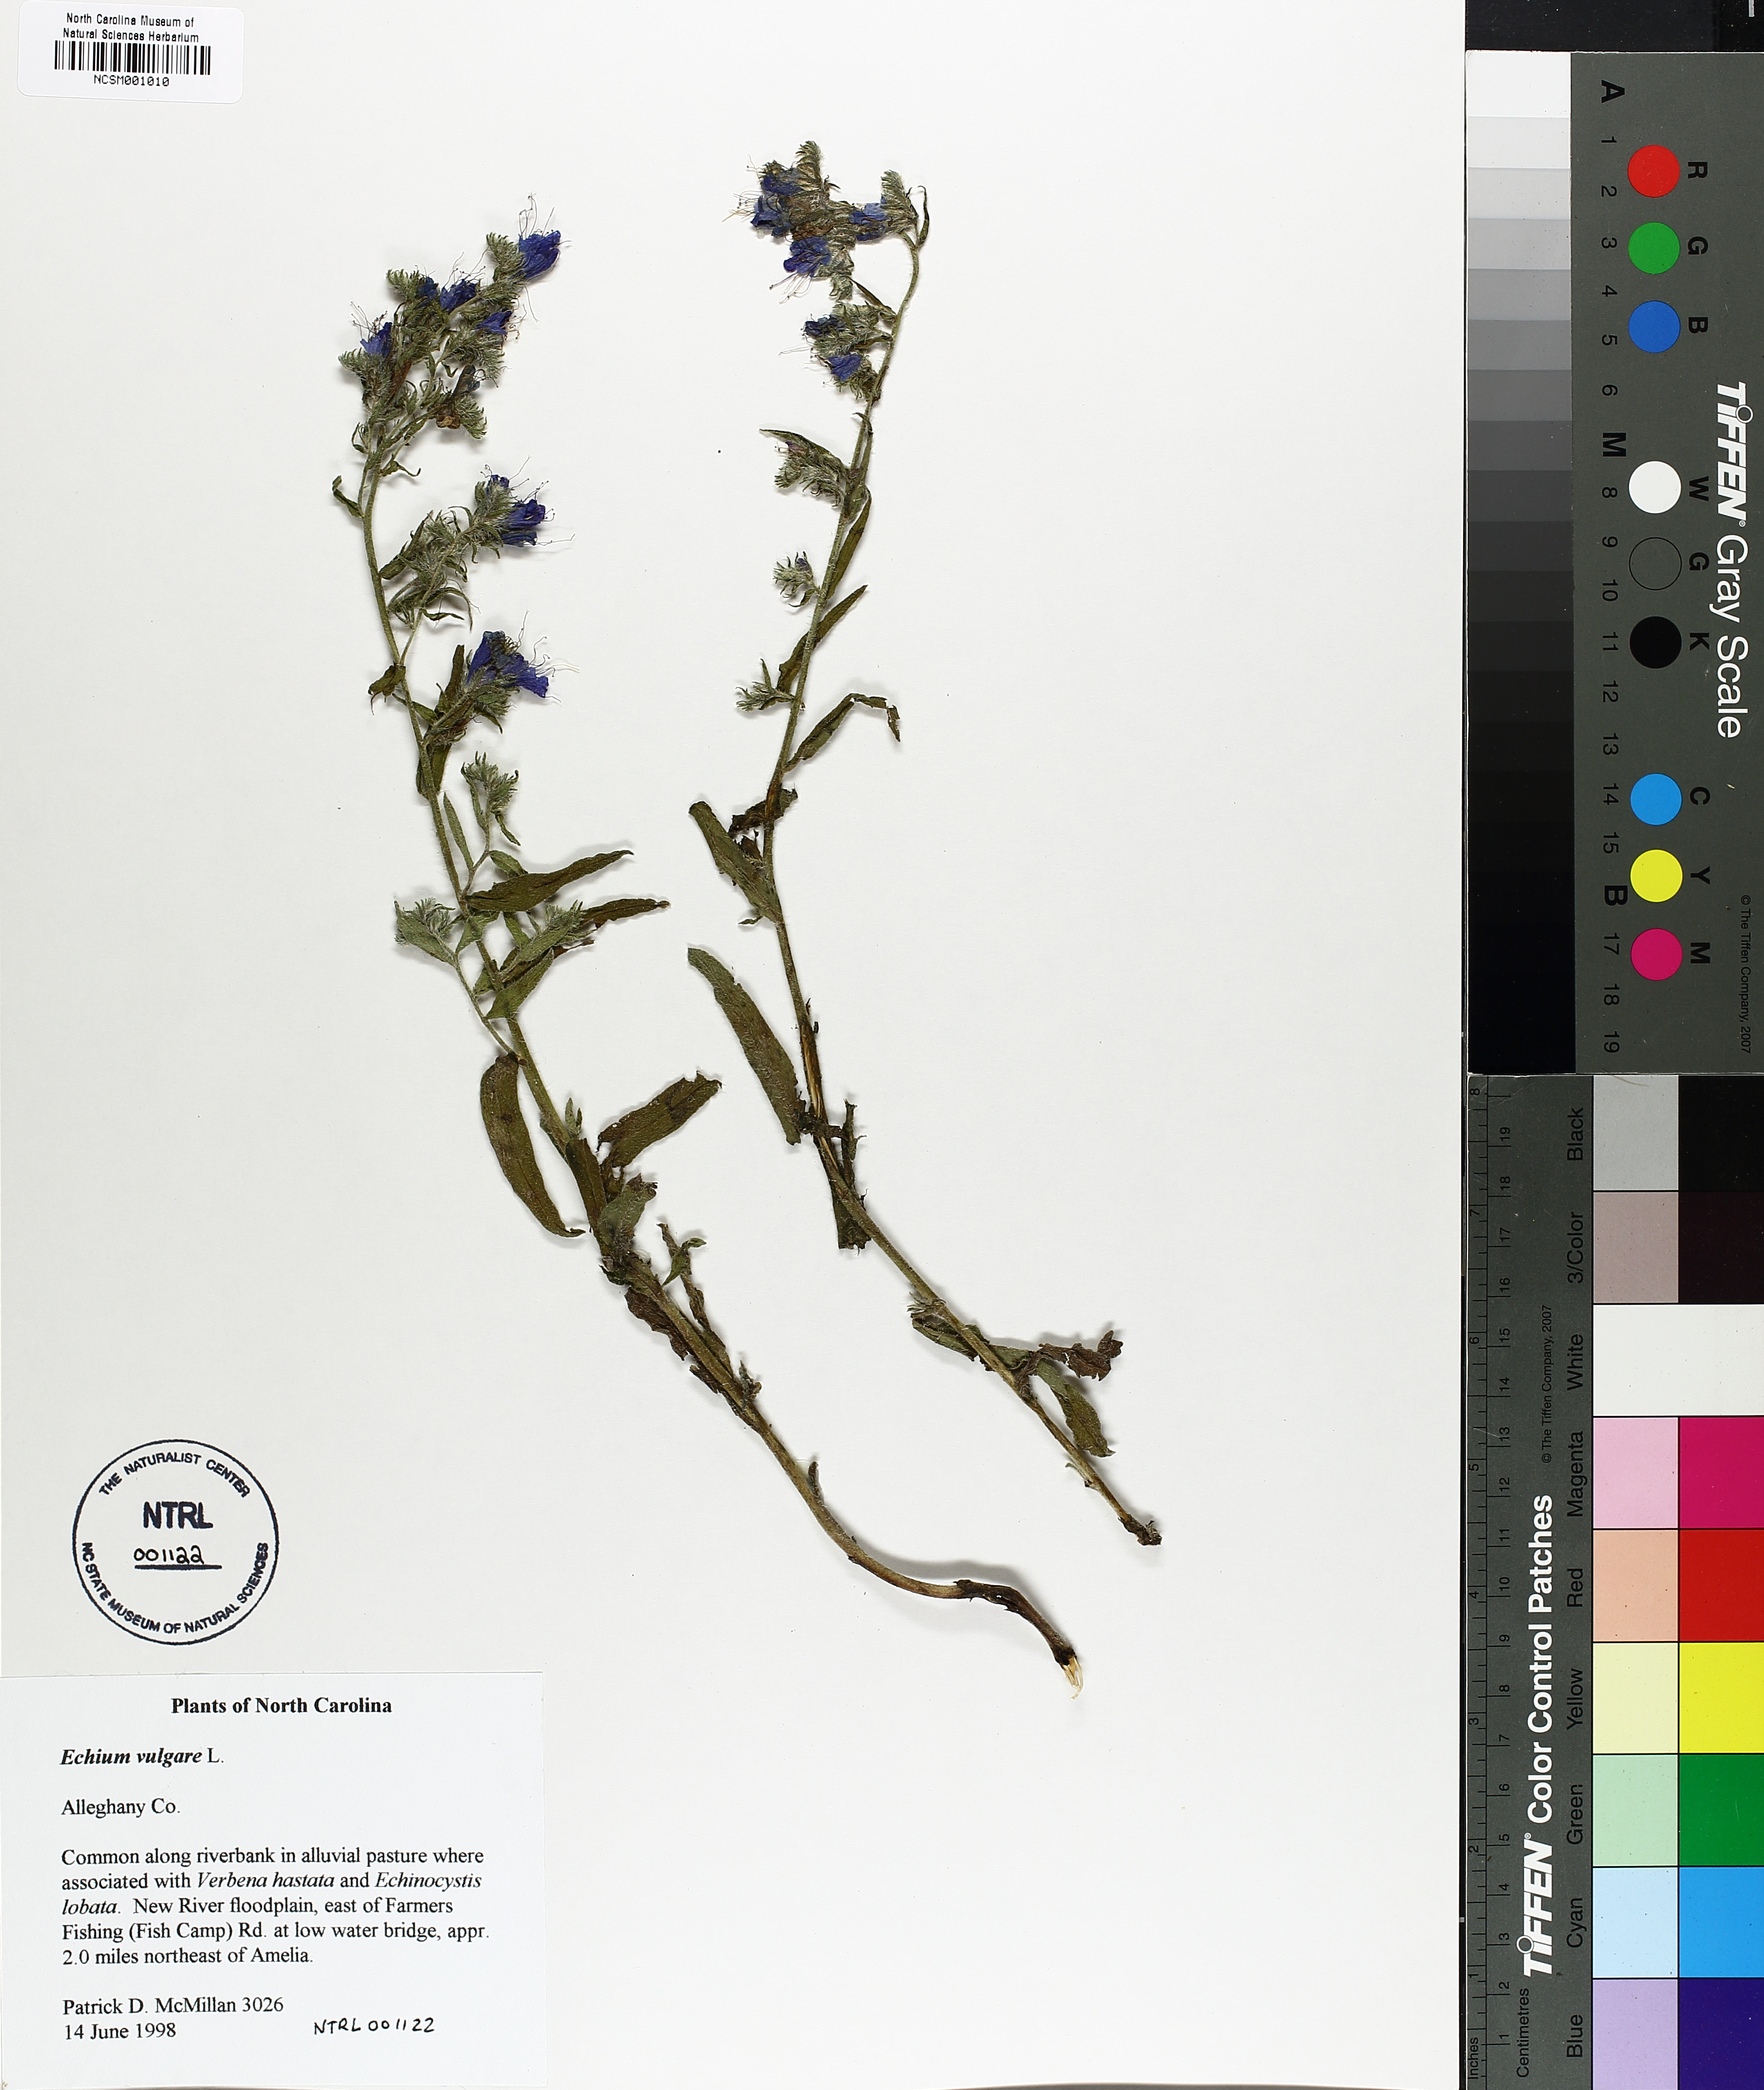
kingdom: Plantae
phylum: Tracheophyta
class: Magnoliopsida
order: Boraginales
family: Boraginaceae
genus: Echium
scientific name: Echium vulgare
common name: Common viper's bugloss
